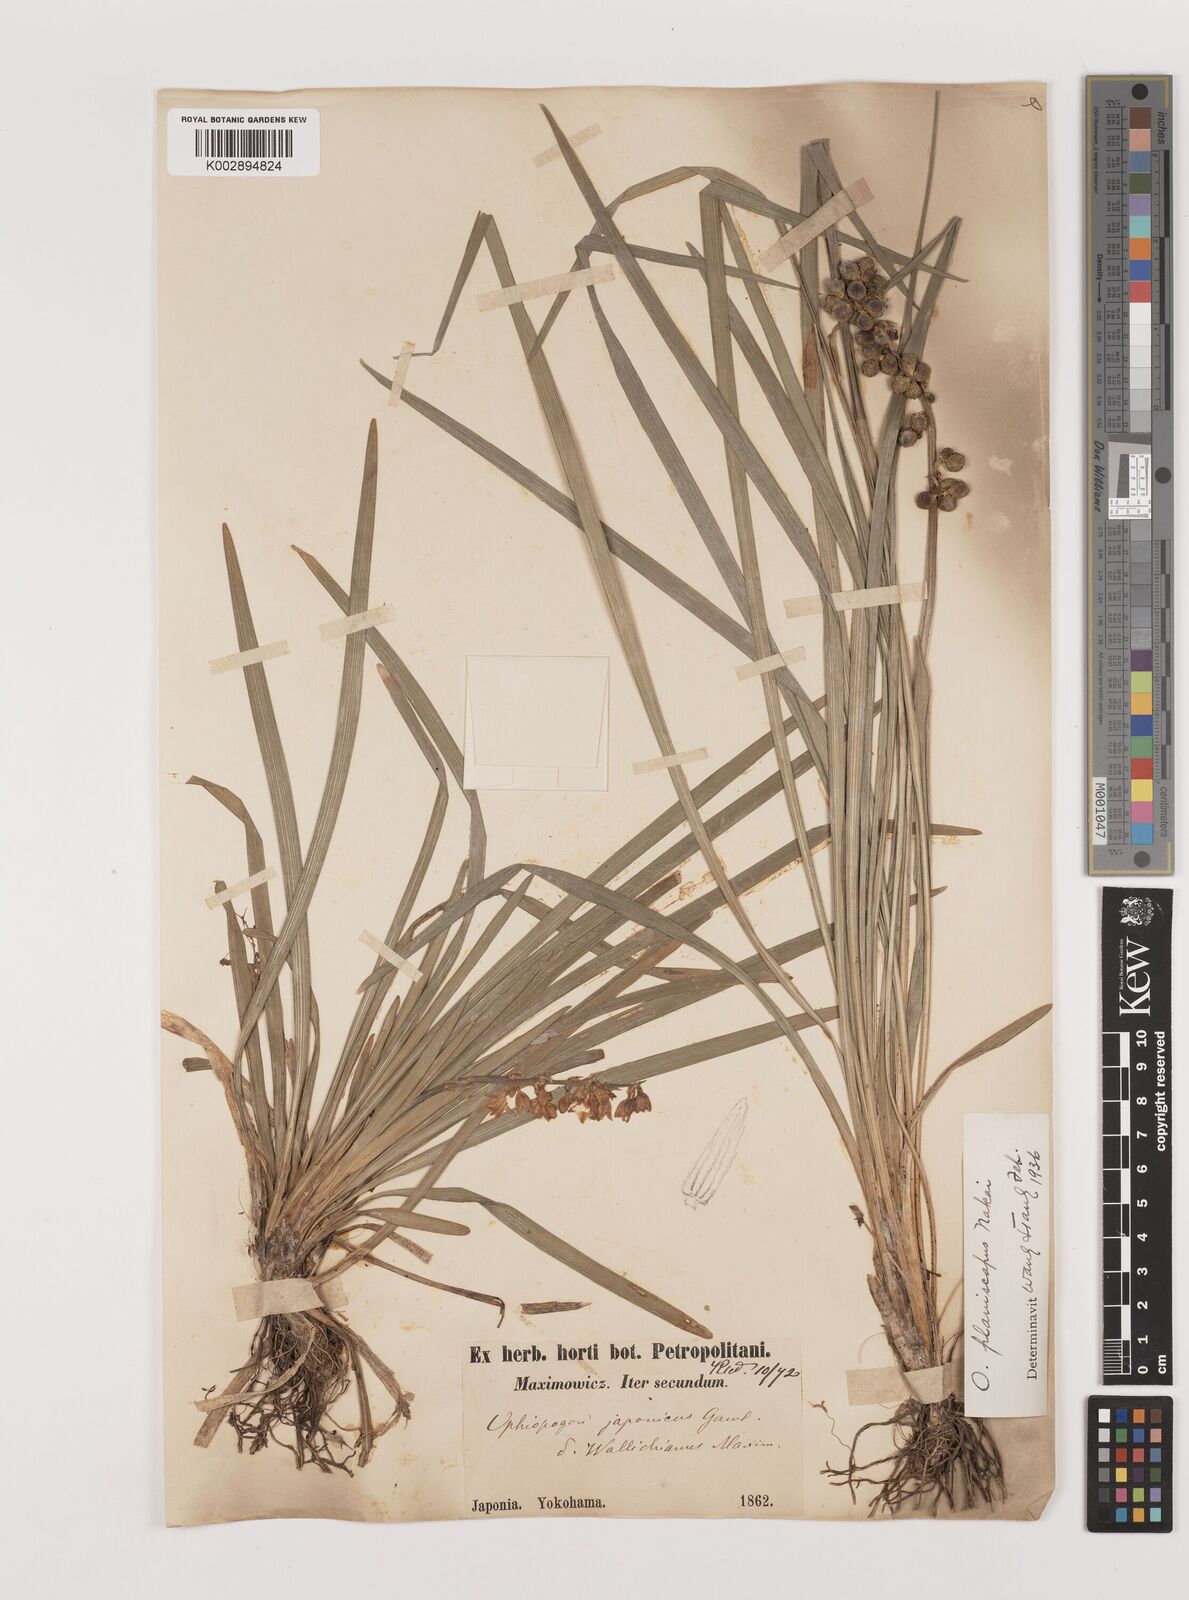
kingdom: Plantae
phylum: Tracheophyta
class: Liliopsida
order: Asparagales
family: Asparagaceae
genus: Ophiopogon
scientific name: Ophiopogon planiscapus
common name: Black mondo
